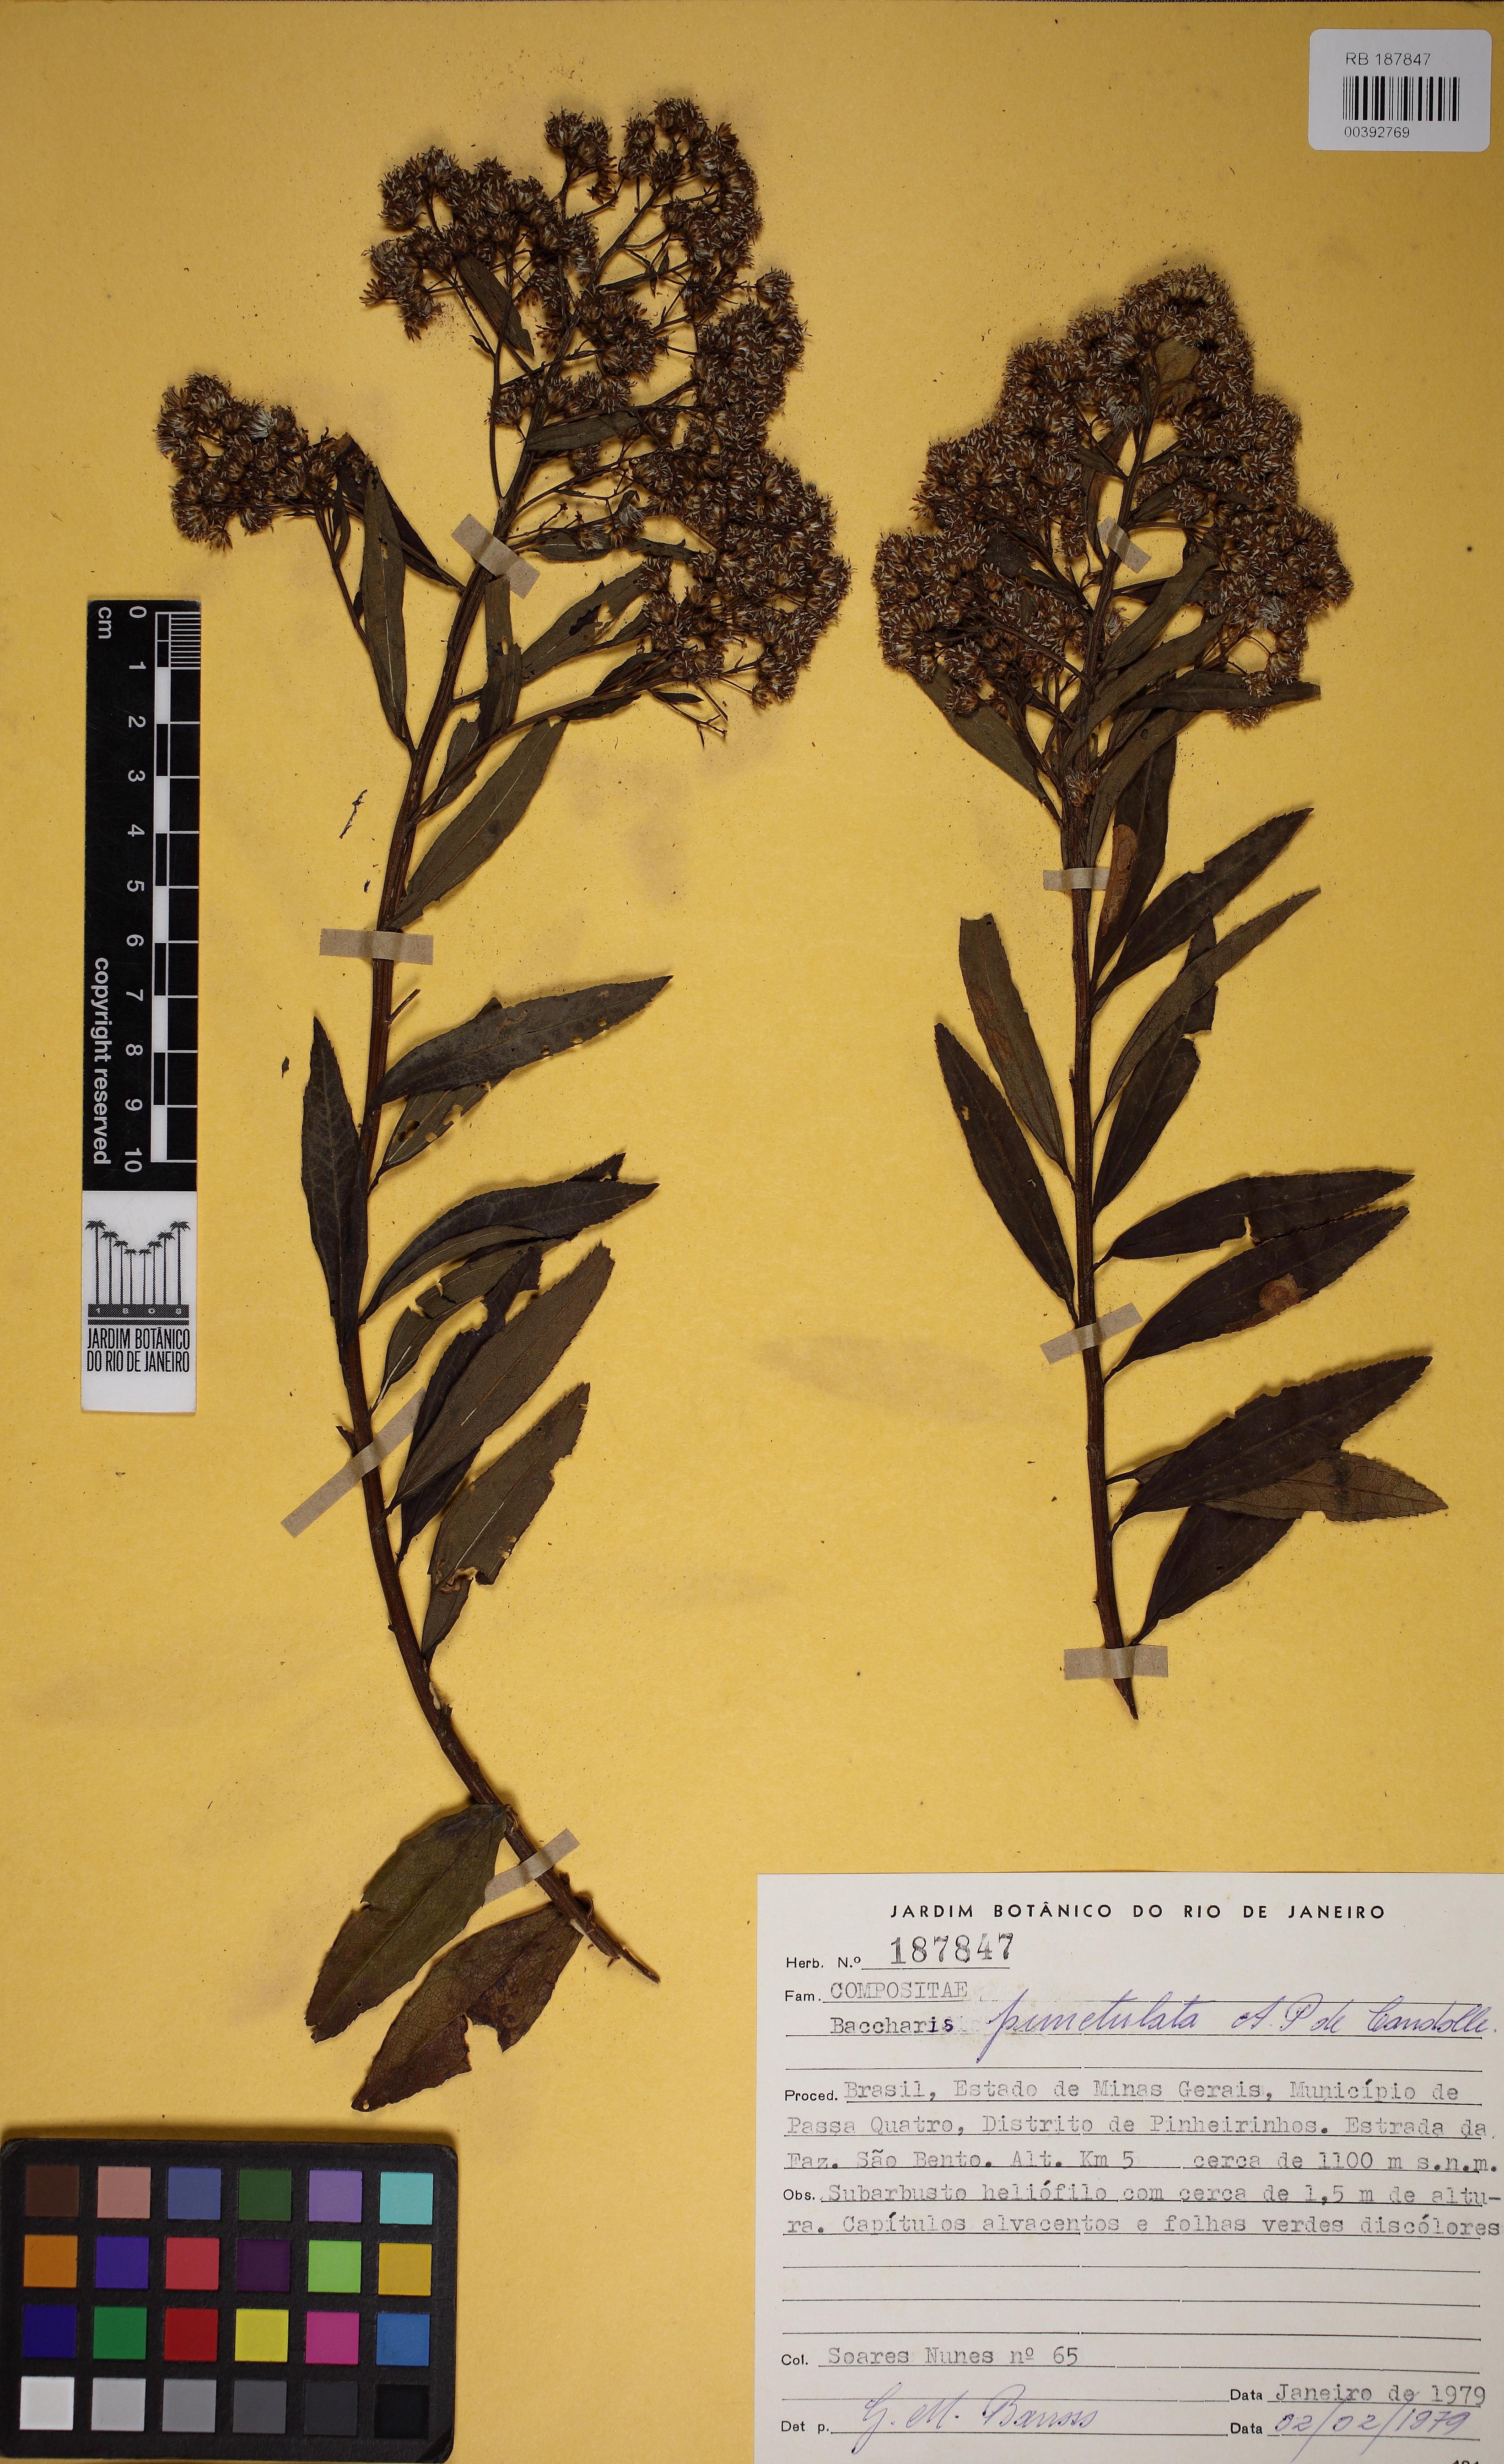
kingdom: Plantae
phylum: Tracheophyta
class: Magnoliopsida
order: Asterales
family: Asteraceae
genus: Baccharis
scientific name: Baccharis punctulata
